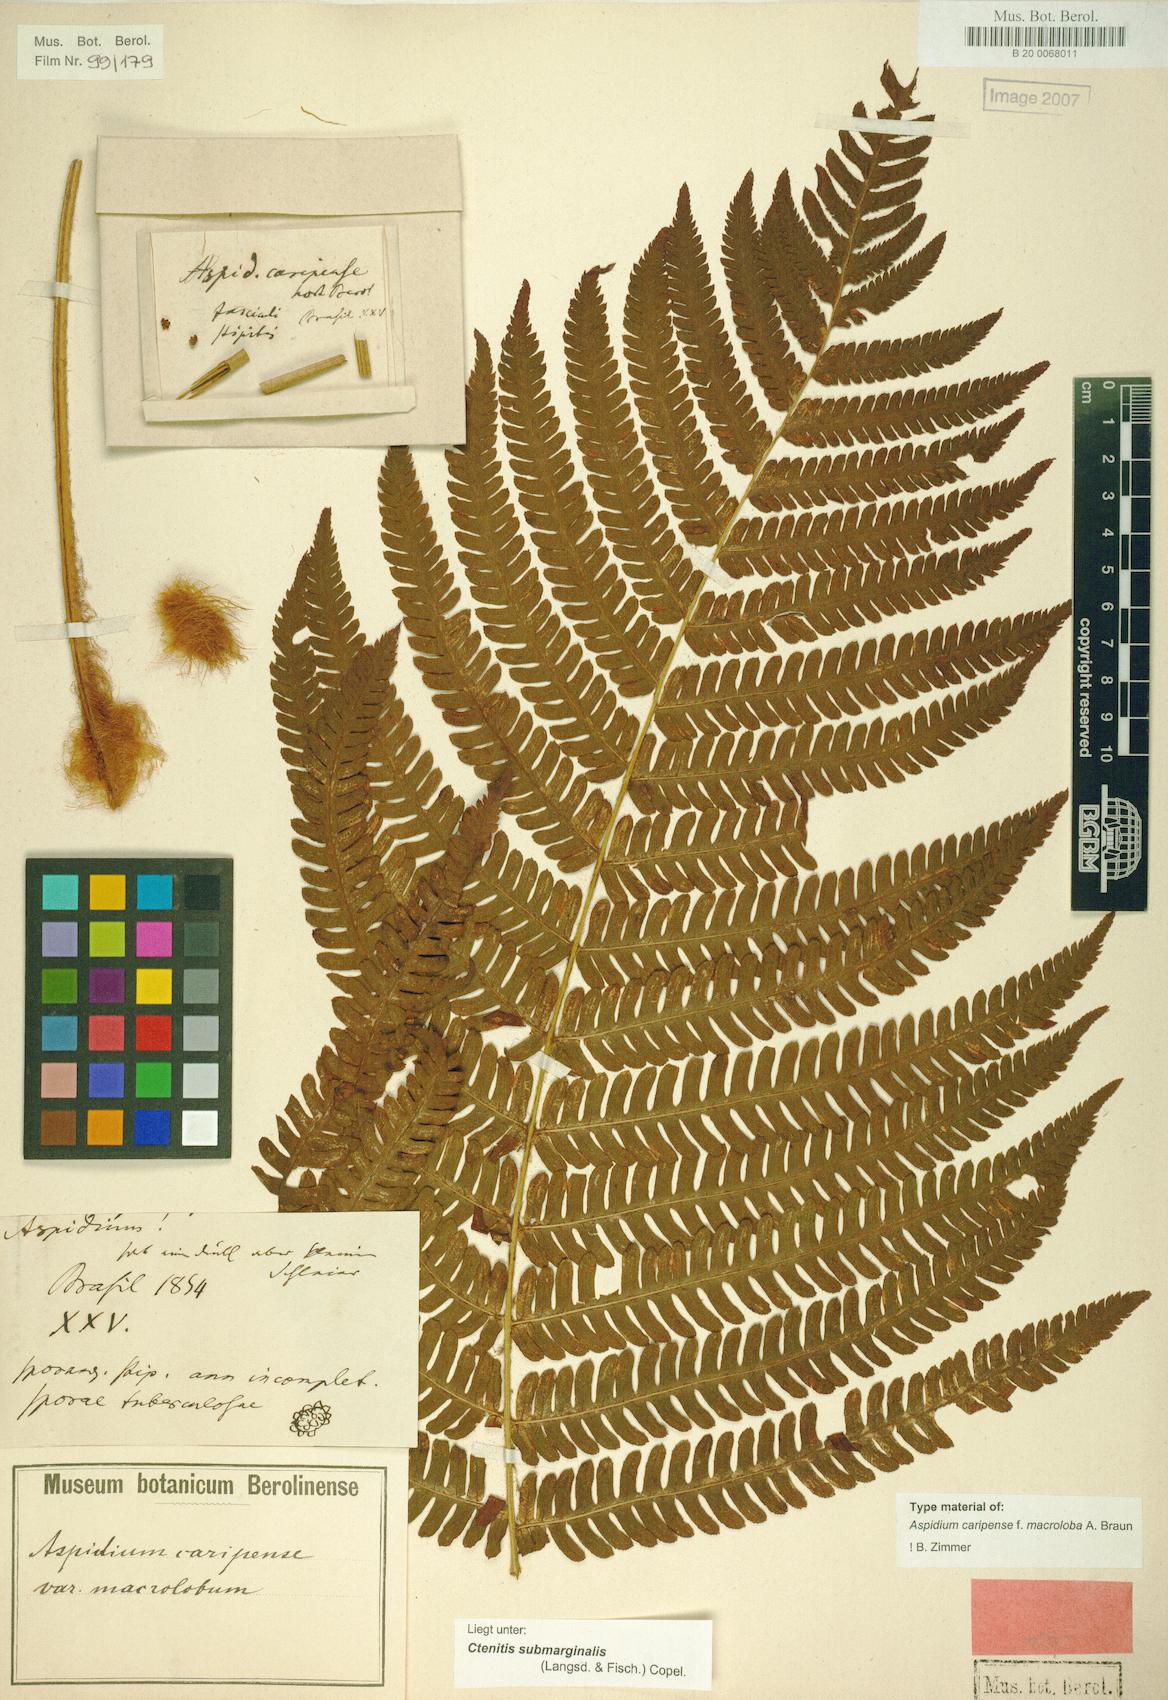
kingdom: Plantae
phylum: Tracheophyta
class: Polypodiopsida
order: Polypodiales
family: Dryopteridaceae
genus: Ctenitis
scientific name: Ctenitis submarginalis
